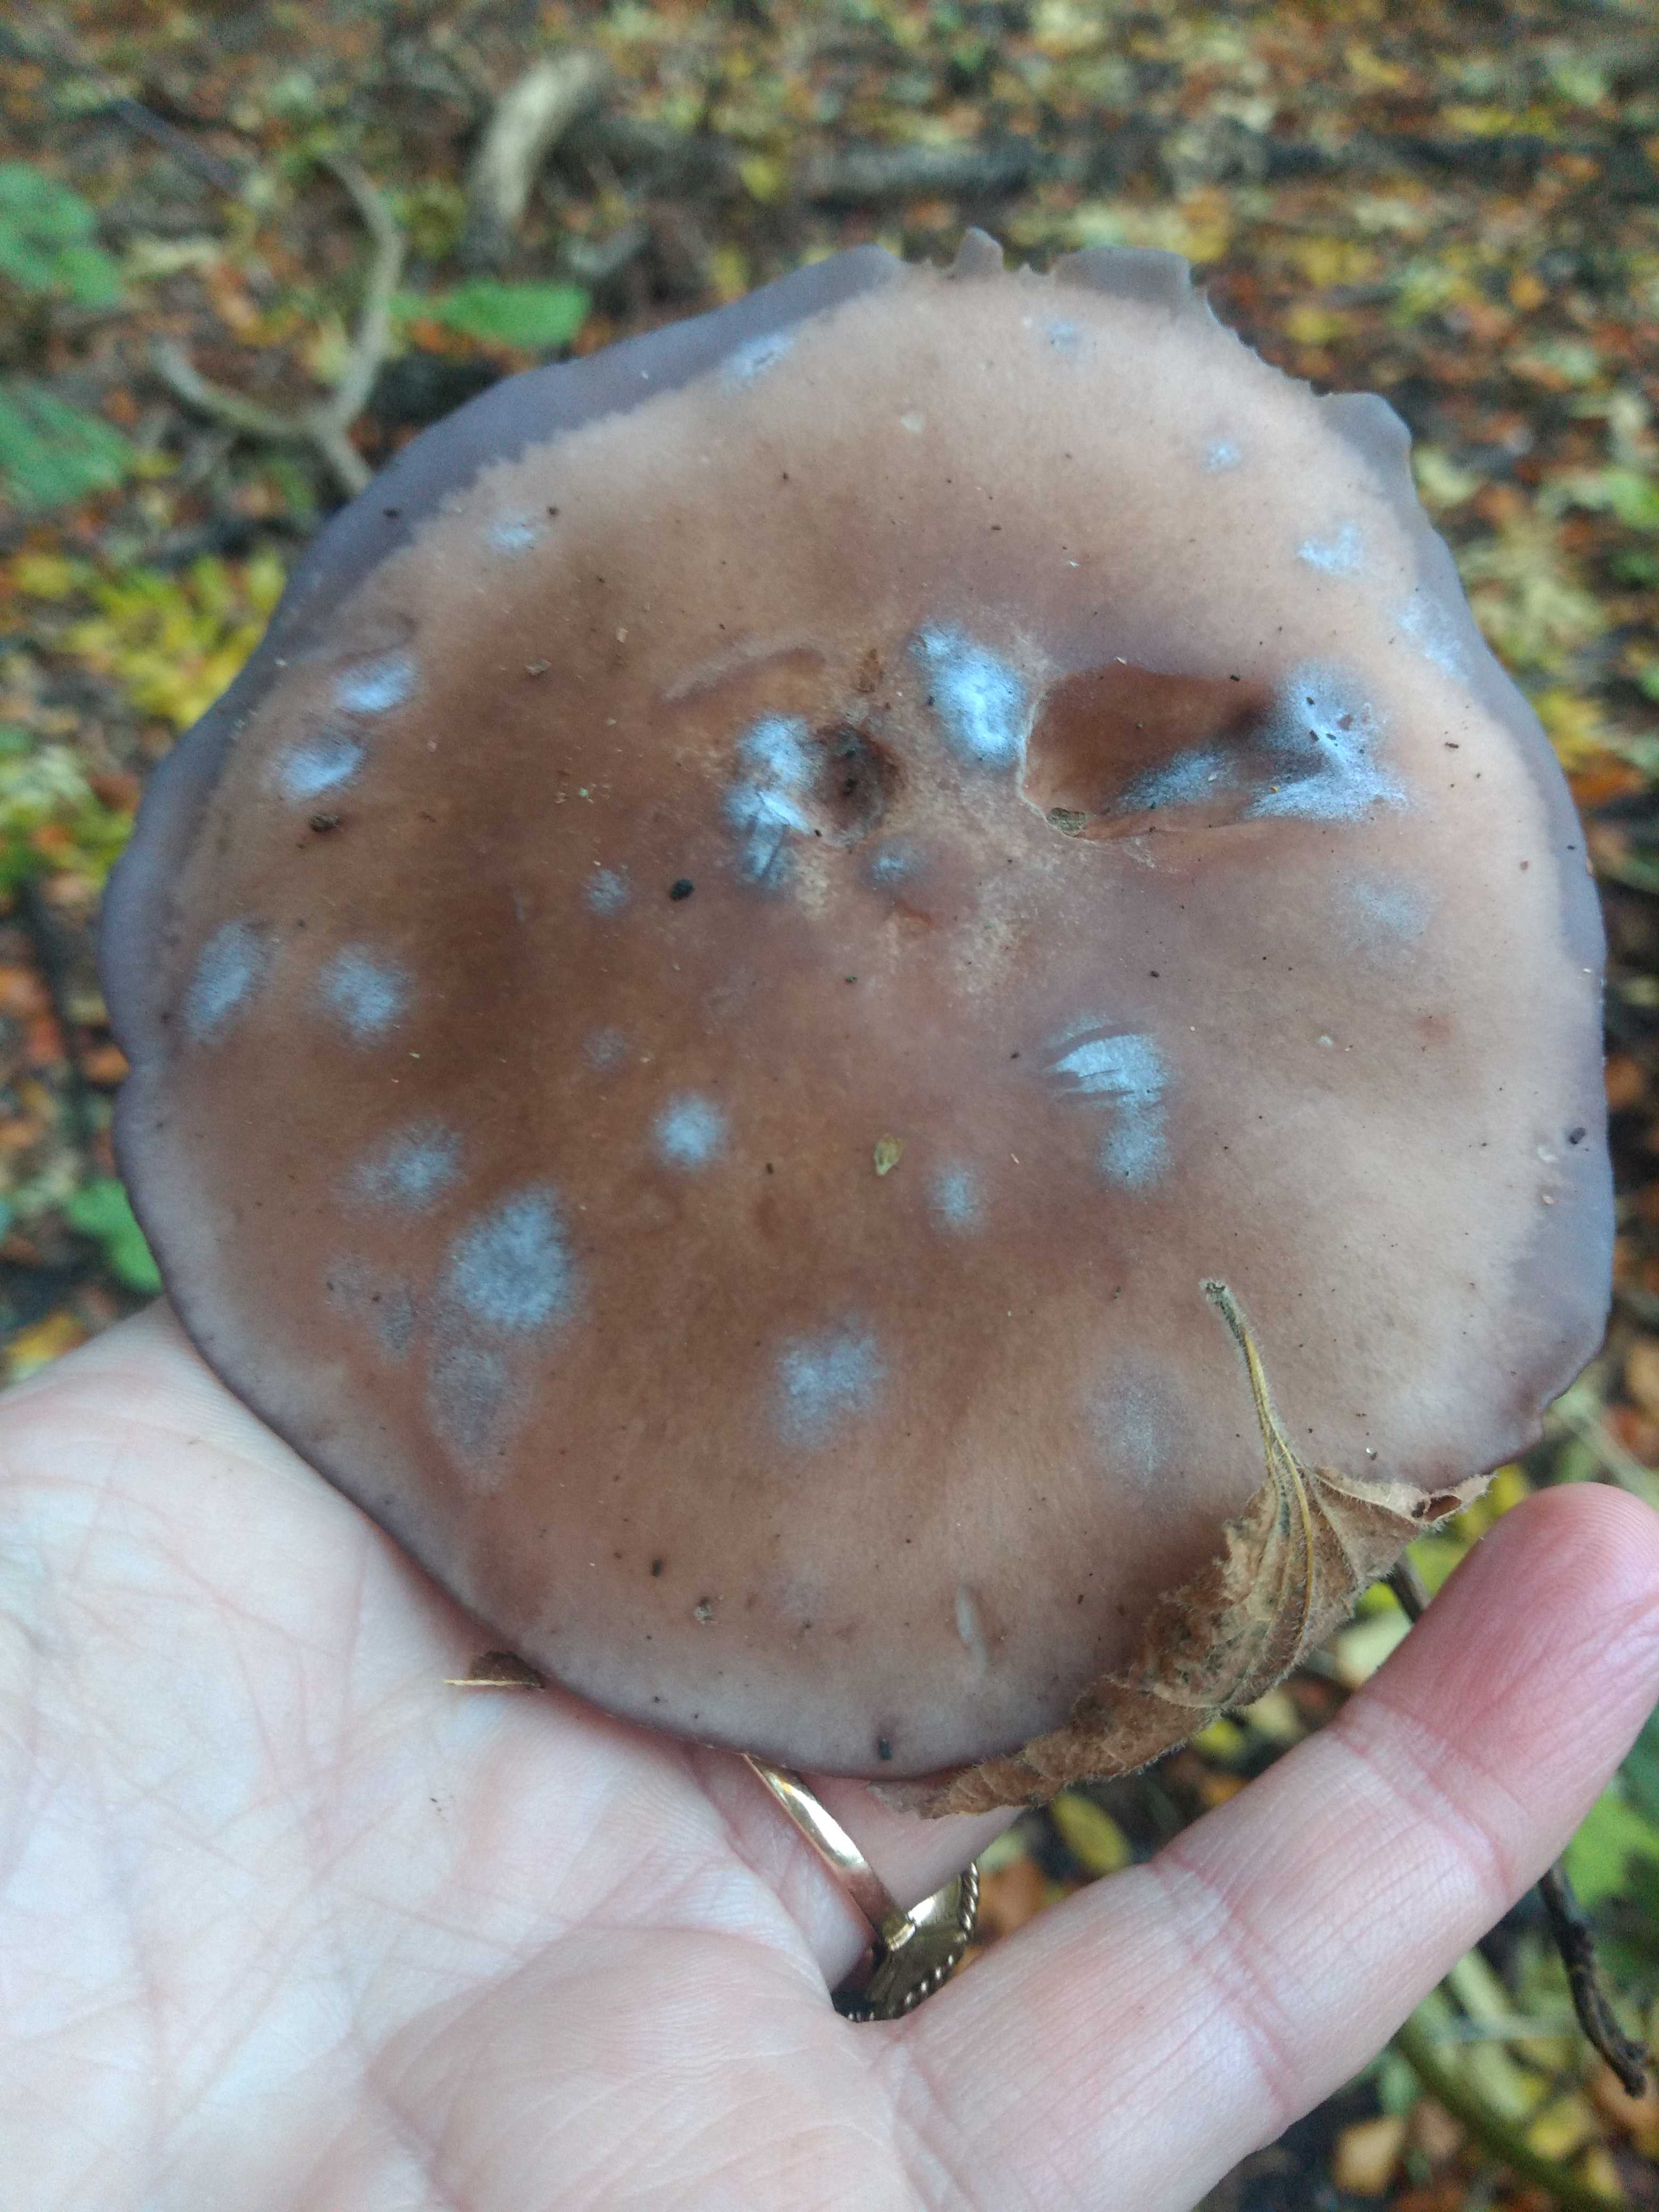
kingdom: Fungi
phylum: Basidiomycota
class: Agaricomycetes
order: Agaricales
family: Tricholomataceae
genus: Lepista
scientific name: Lepista nuda
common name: violet hekseringshat
